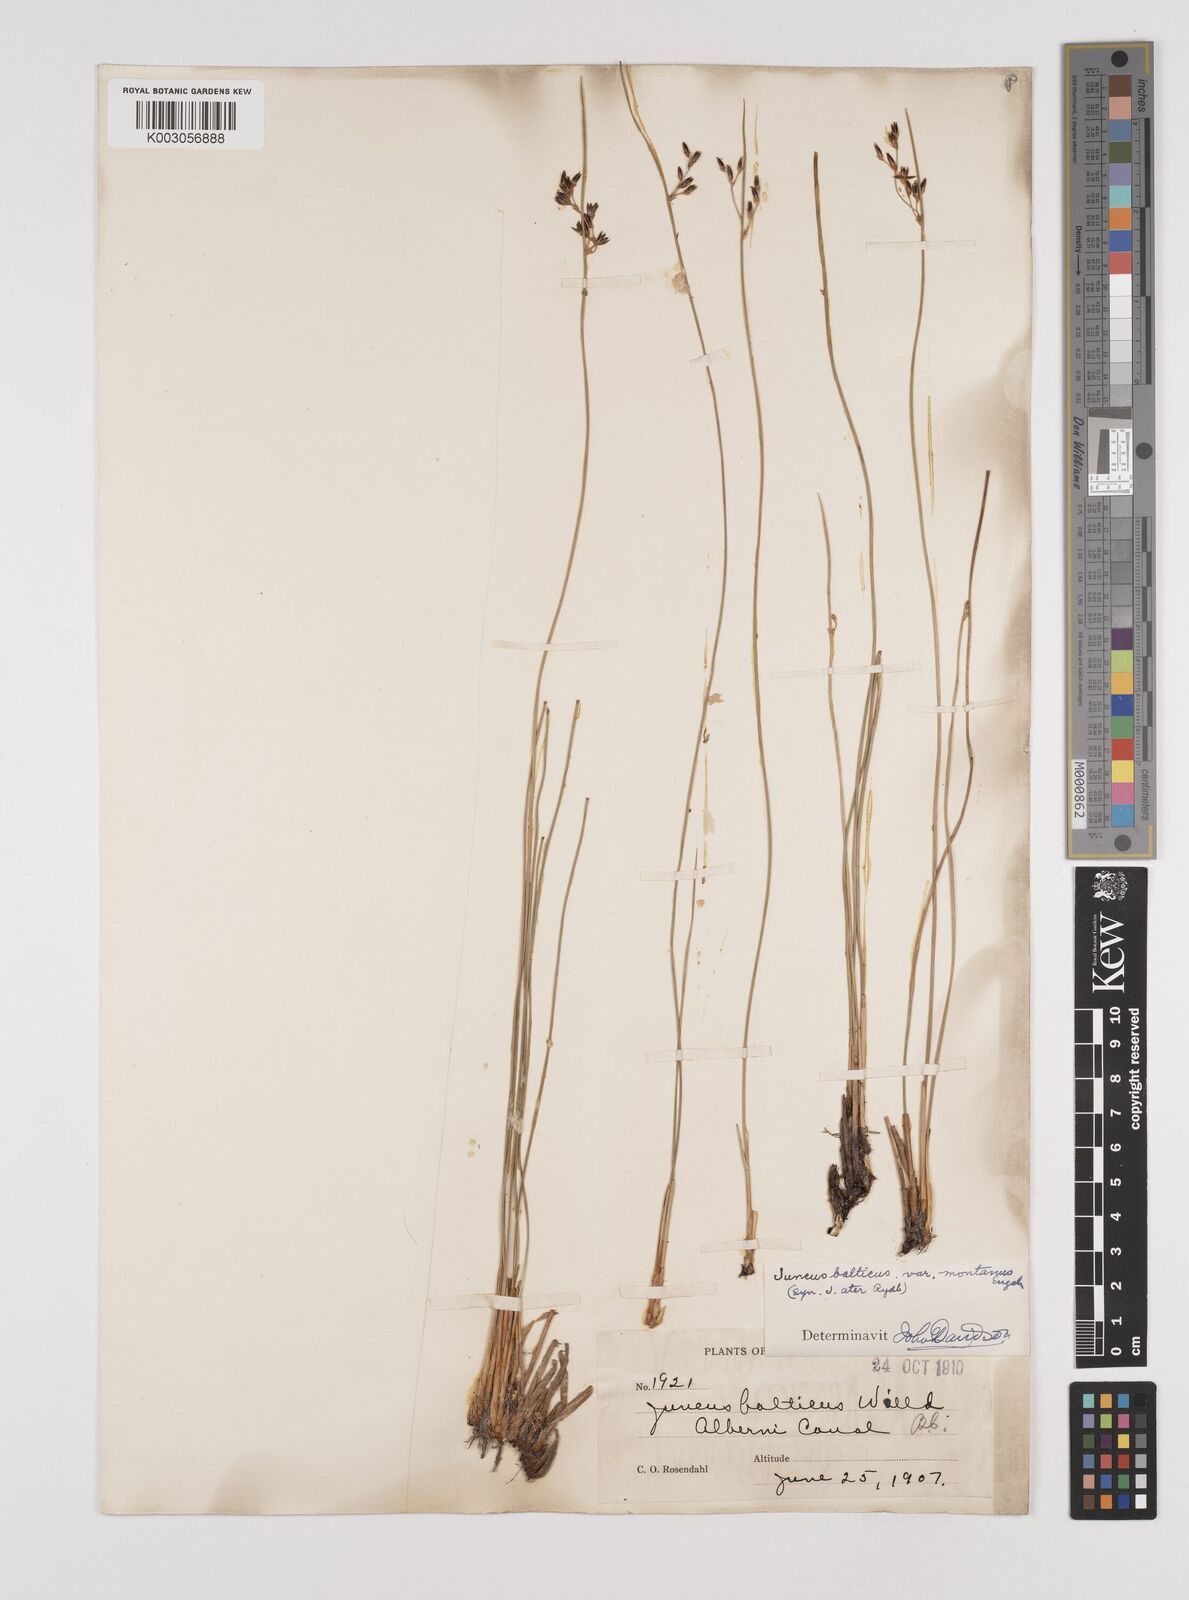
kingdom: Plantae
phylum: Tracheophyta
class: Liliopsida
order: Poales
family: Juncaceae
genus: Juncus
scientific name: Juncus
